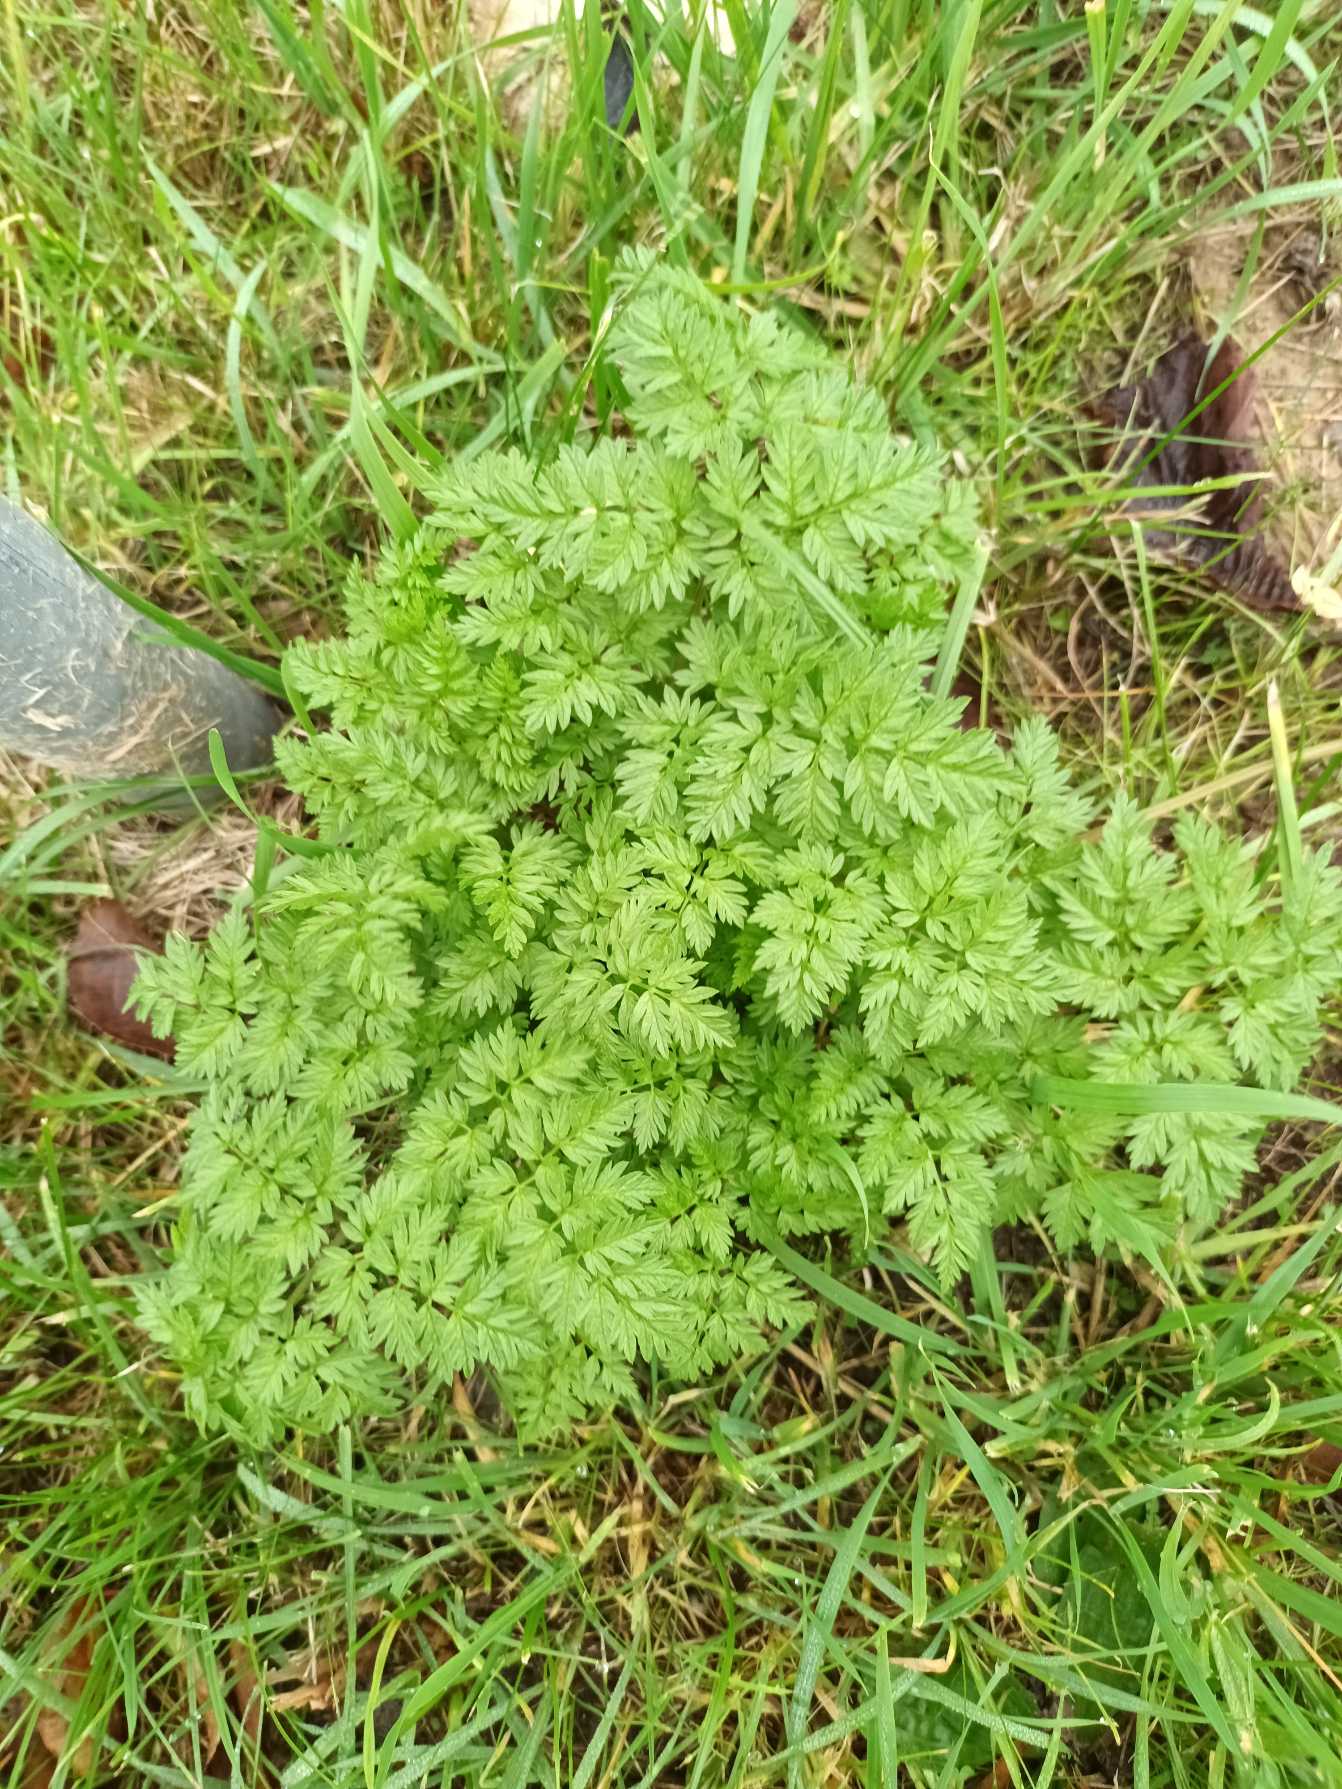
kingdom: Plantae
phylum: Tracheophyta
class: Magnoliopsida
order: Apiales
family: Apiaceae
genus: Anthriscus
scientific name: Anthriscus sylvestris
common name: Vild kørvel
